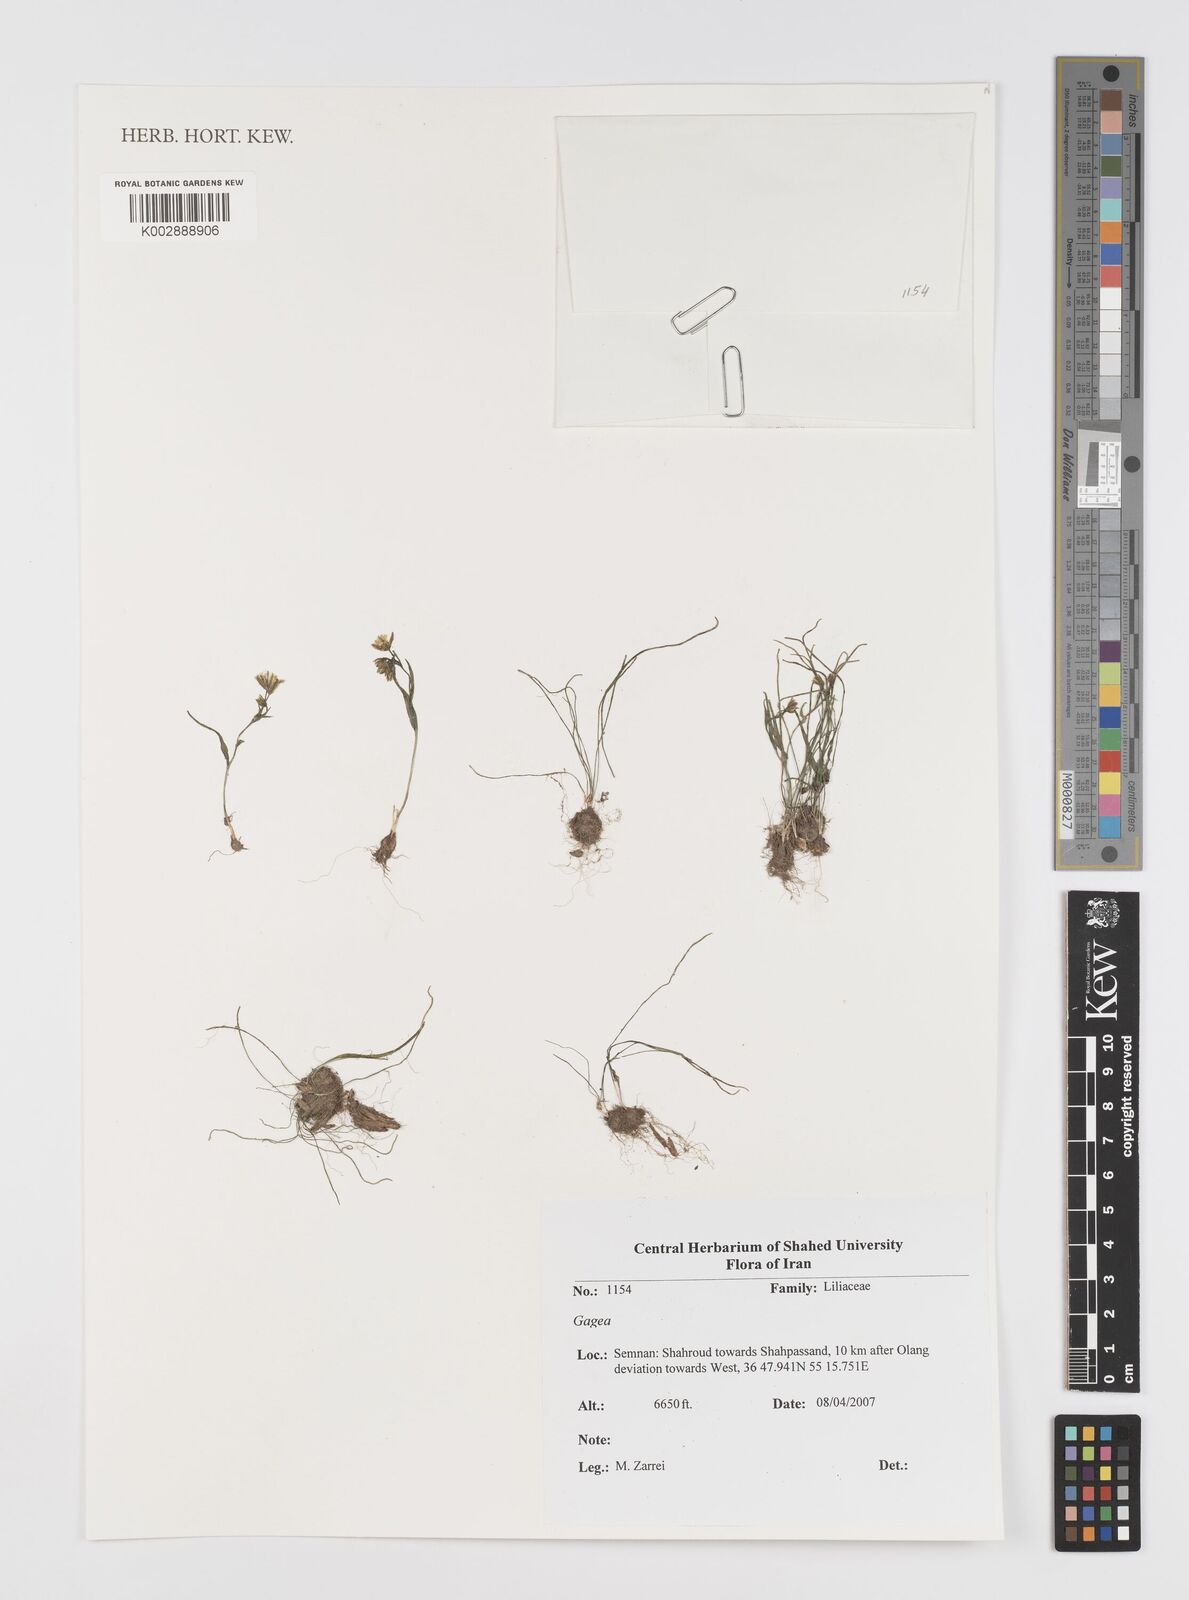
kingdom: Plantae
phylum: Tracheophyta
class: Liliopsida
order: Liliales
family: Liliaceae
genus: Gagea
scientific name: Gagea
